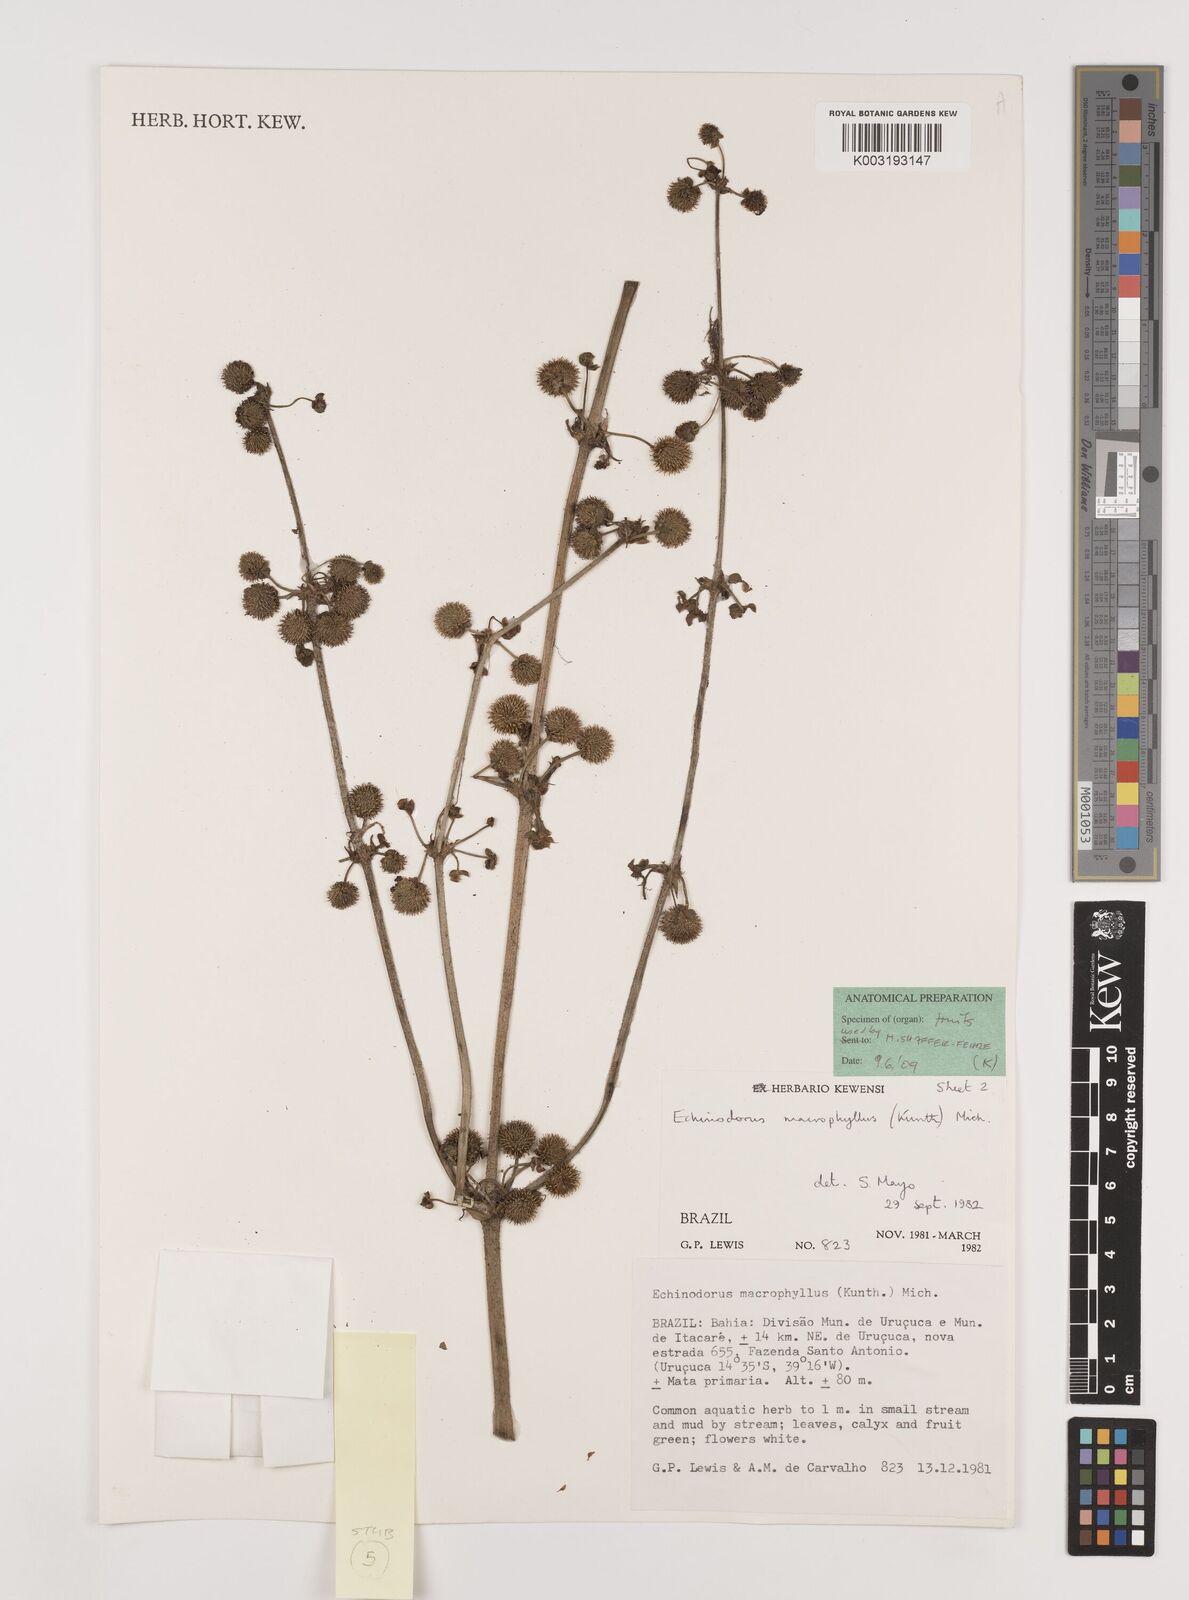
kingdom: Plantae
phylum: Tracheophyta
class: Liliopsida
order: Alismatales
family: Alismataceae
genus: Aquarius
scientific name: Aquarius scaber
